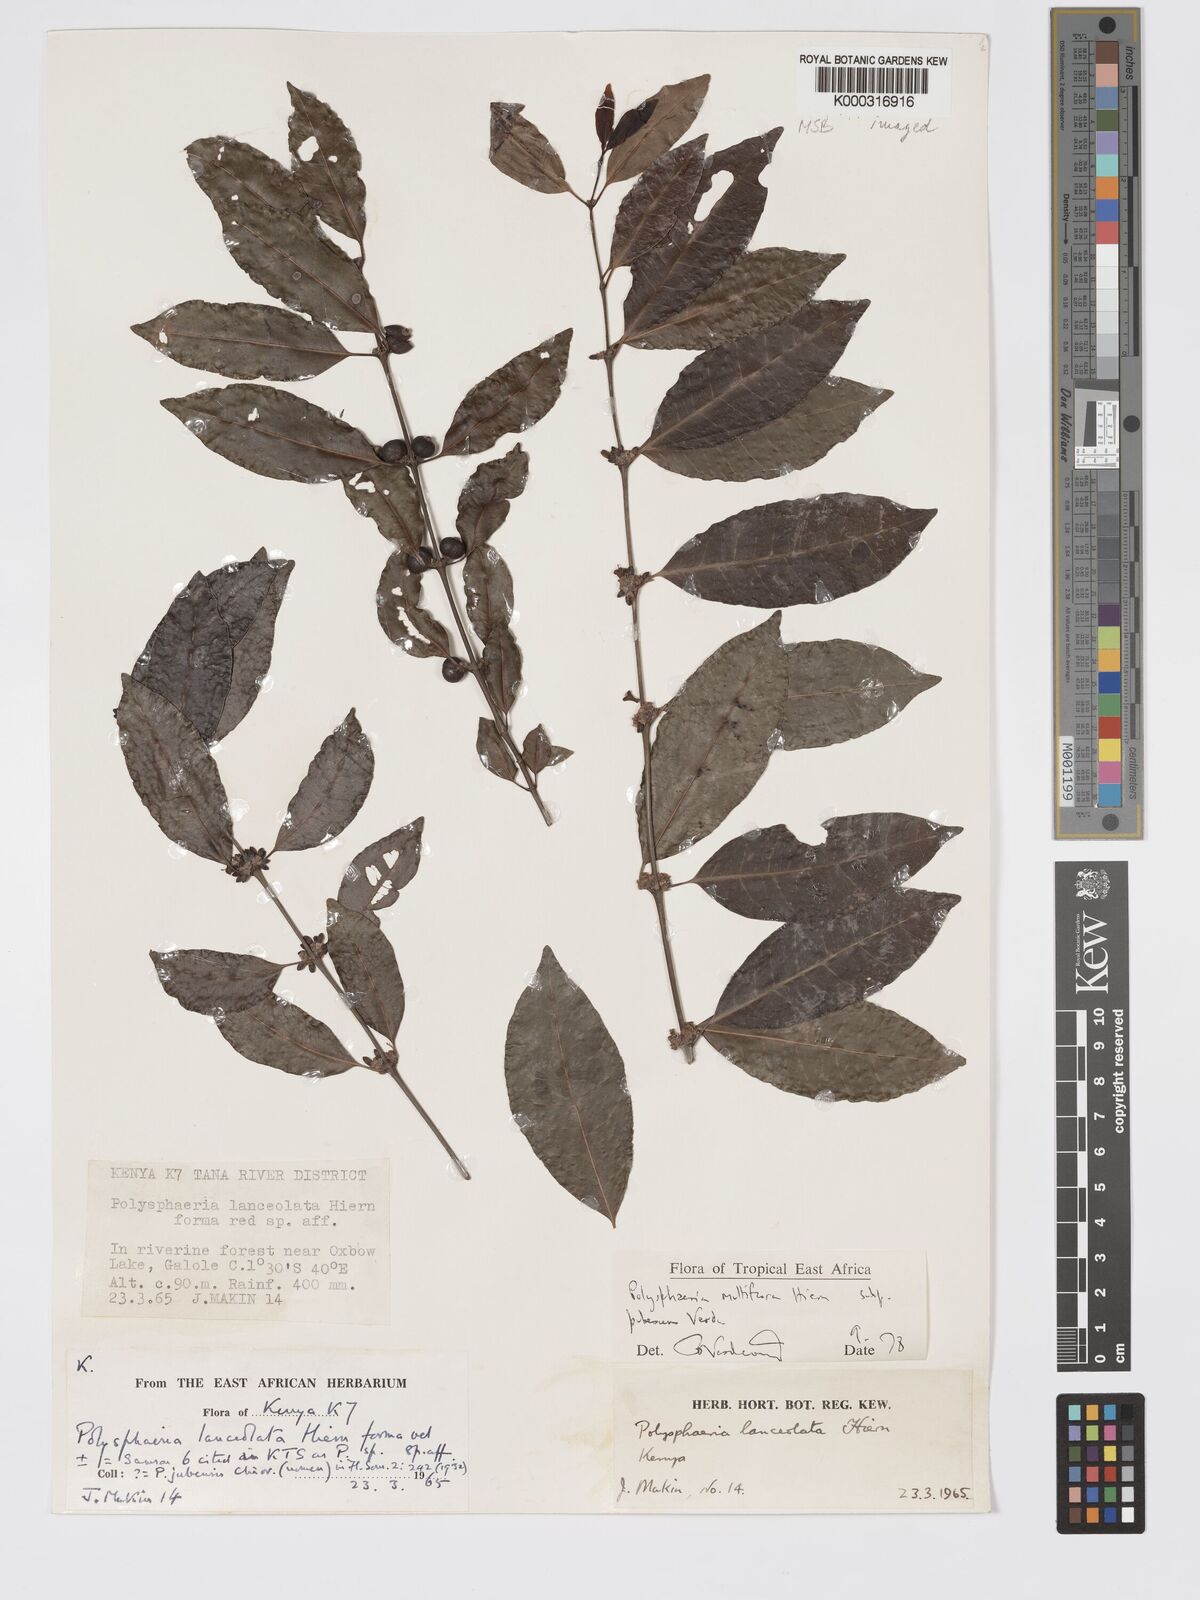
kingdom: Plantae
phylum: Tracheophyta
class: Magnoliopsida
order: Gentianales
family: Rubiaceae
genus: Polysphaeria
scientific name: Polysphaeria multiflora
